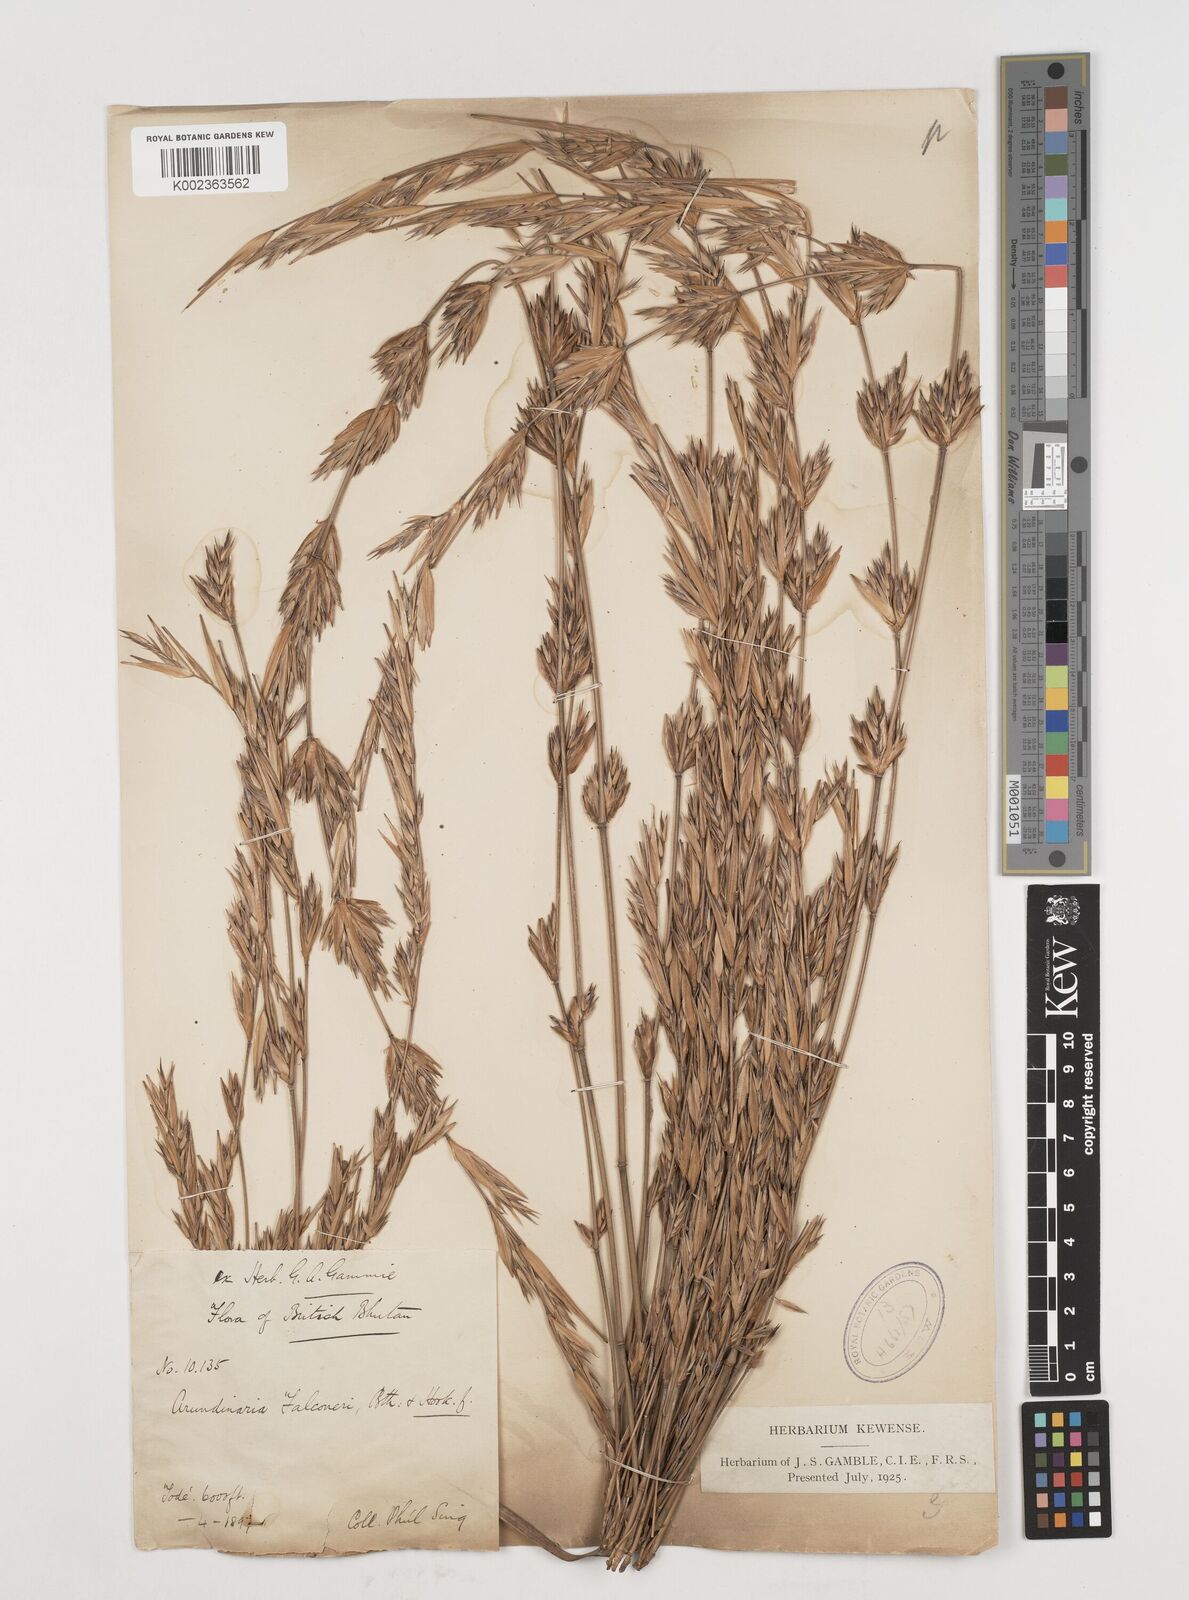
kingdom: Plantae
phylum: Tracheophyta
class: Liliopsida
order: Poales
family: Poaceae
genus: Himalayacalamus
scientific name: Himalayacalamus falconeri
